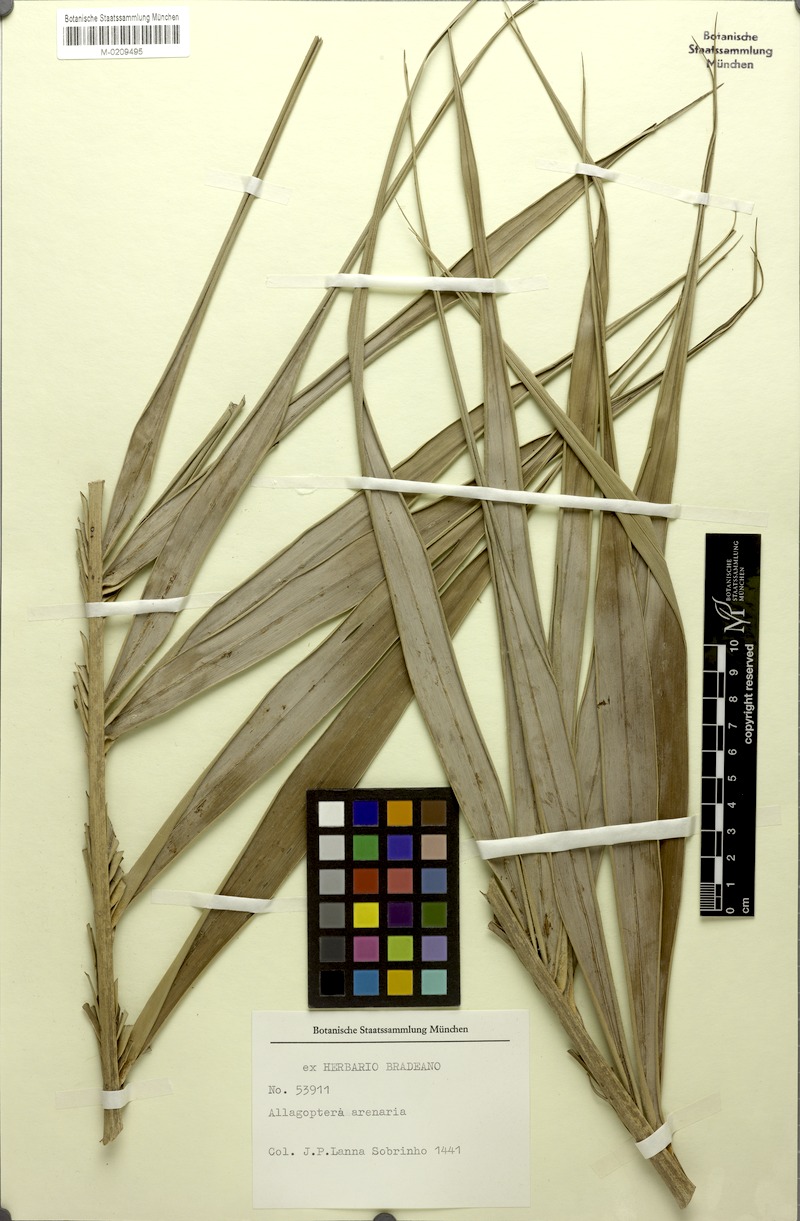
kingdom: Plantae
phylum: Tracheophyta
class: Liliopsida
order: Arecales
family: Arecaceae
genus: Allagoptera
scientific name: Allagoptera arenaria
